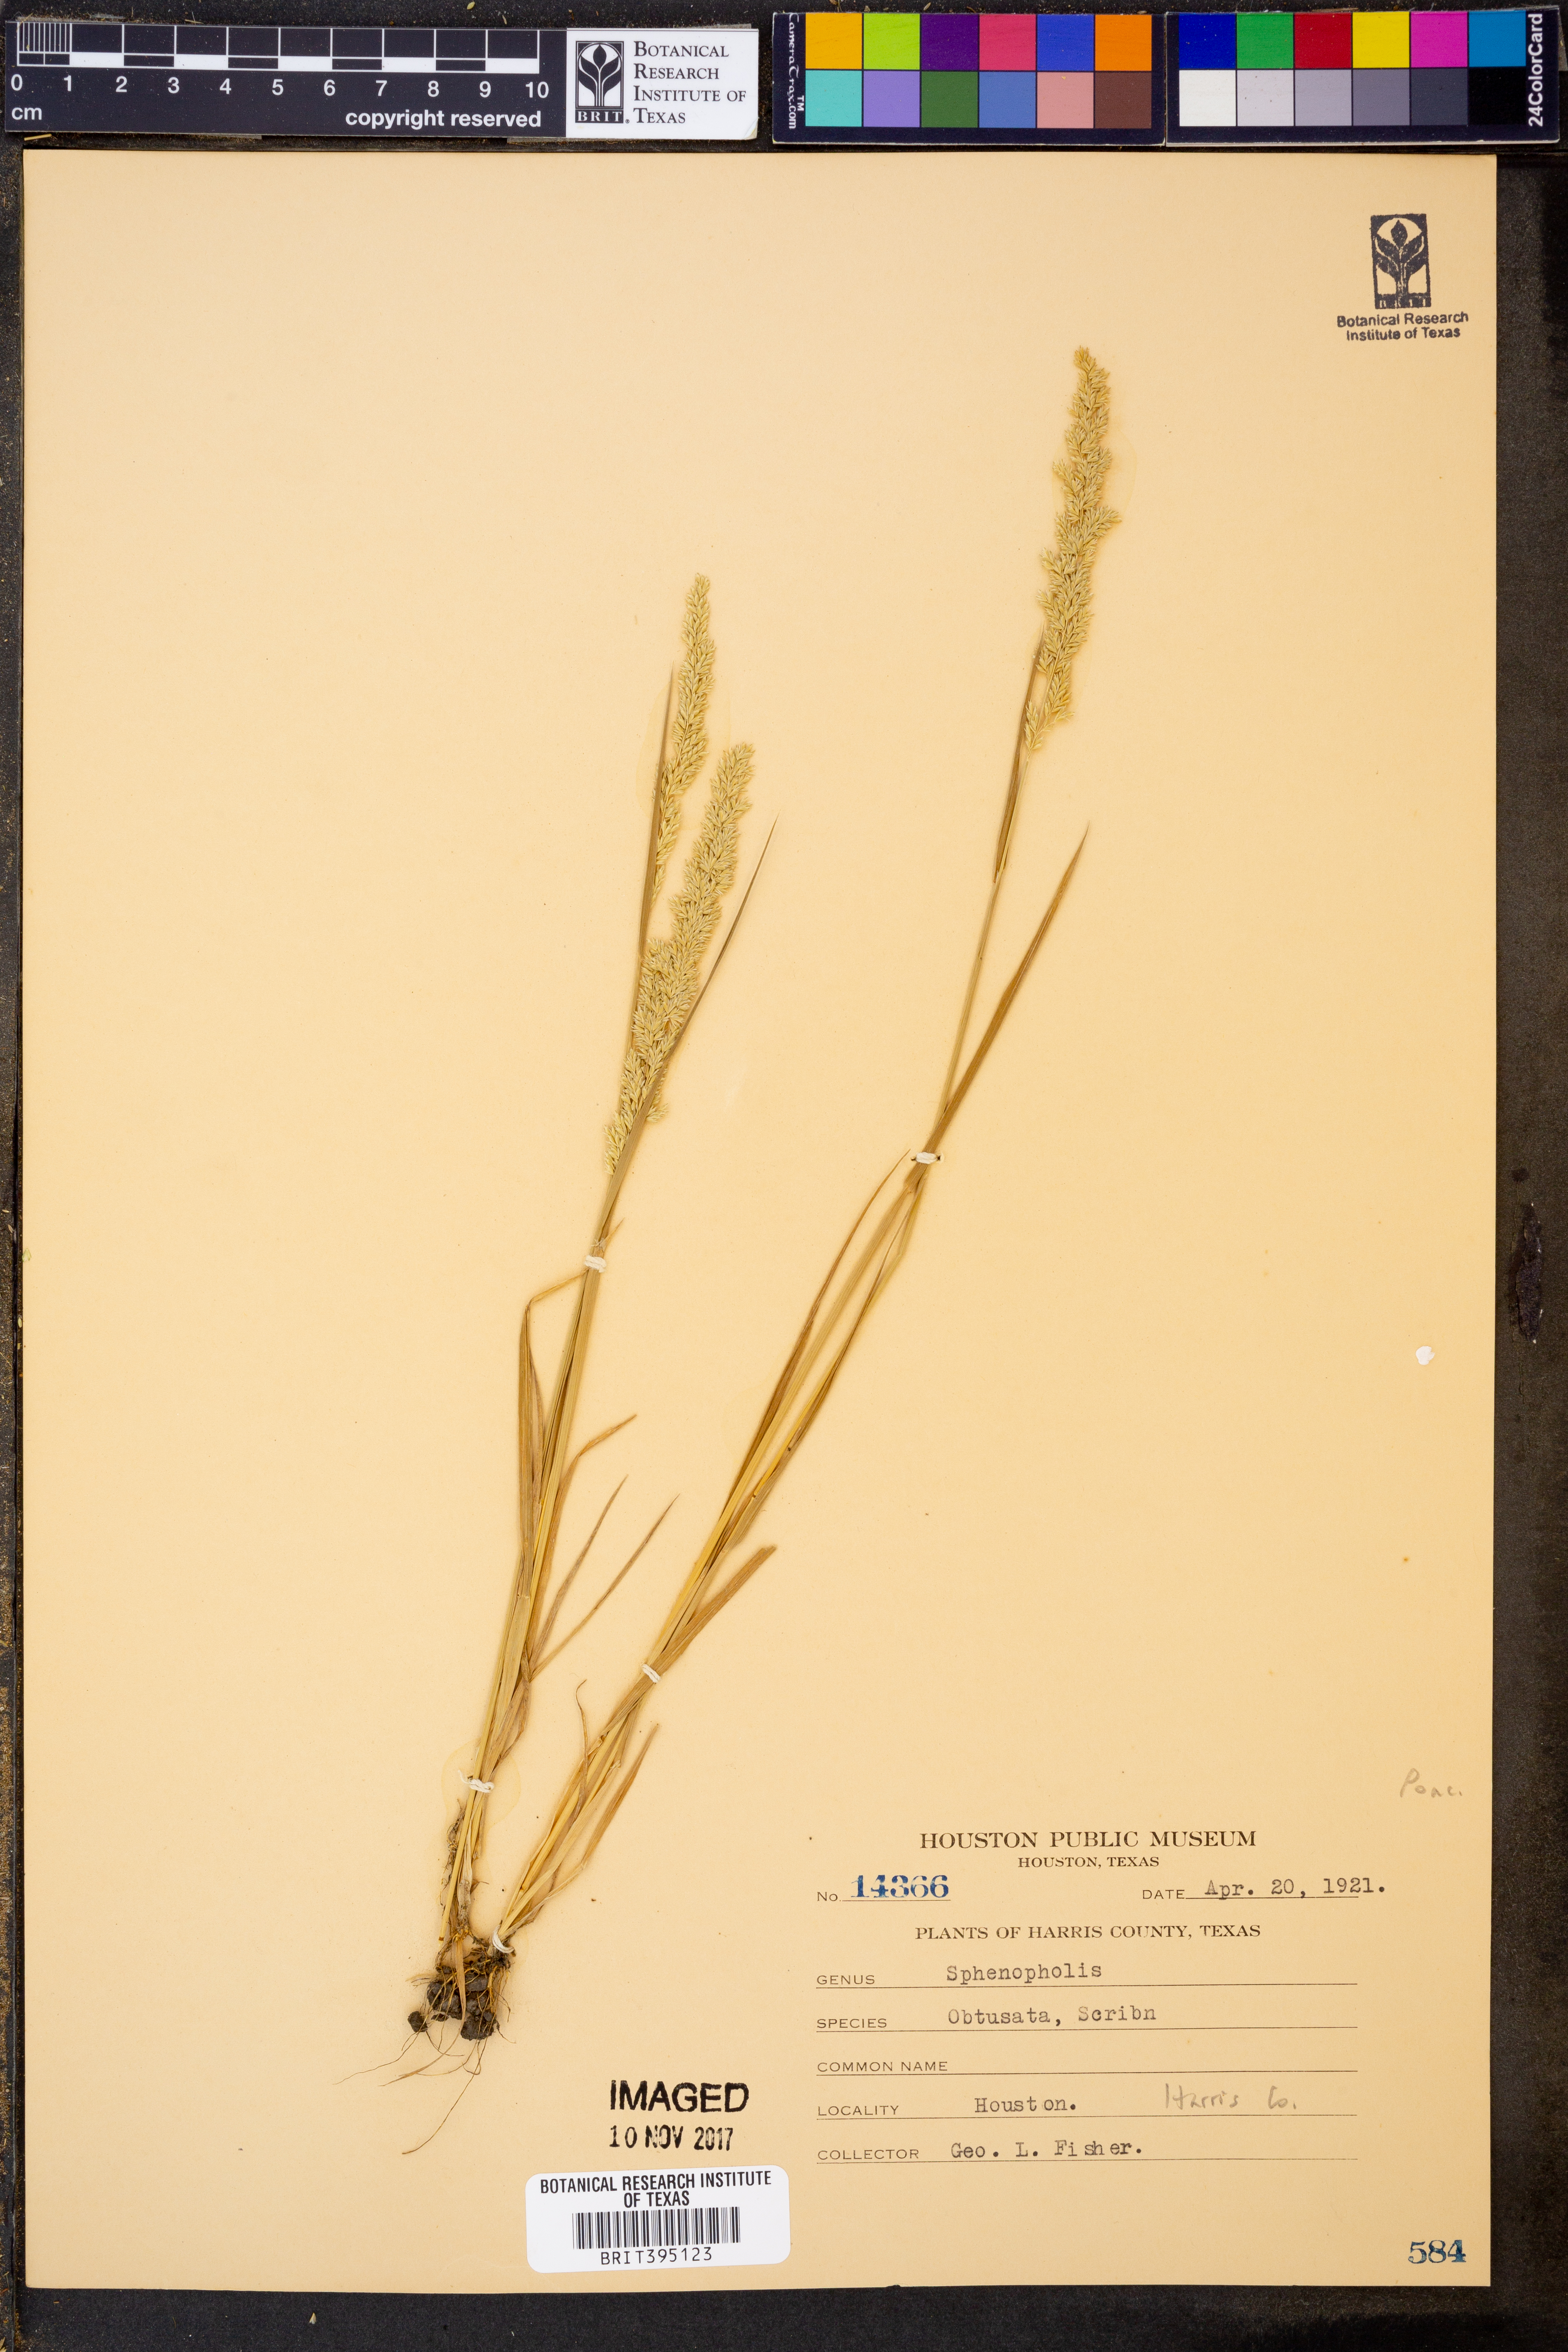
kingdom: Plantae
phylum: Tracheophyta
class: Liliopsida
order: Poales
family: Poaceae
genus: Sphenopholis
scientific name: Sphenopholis obtusata
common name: Prairie grass
